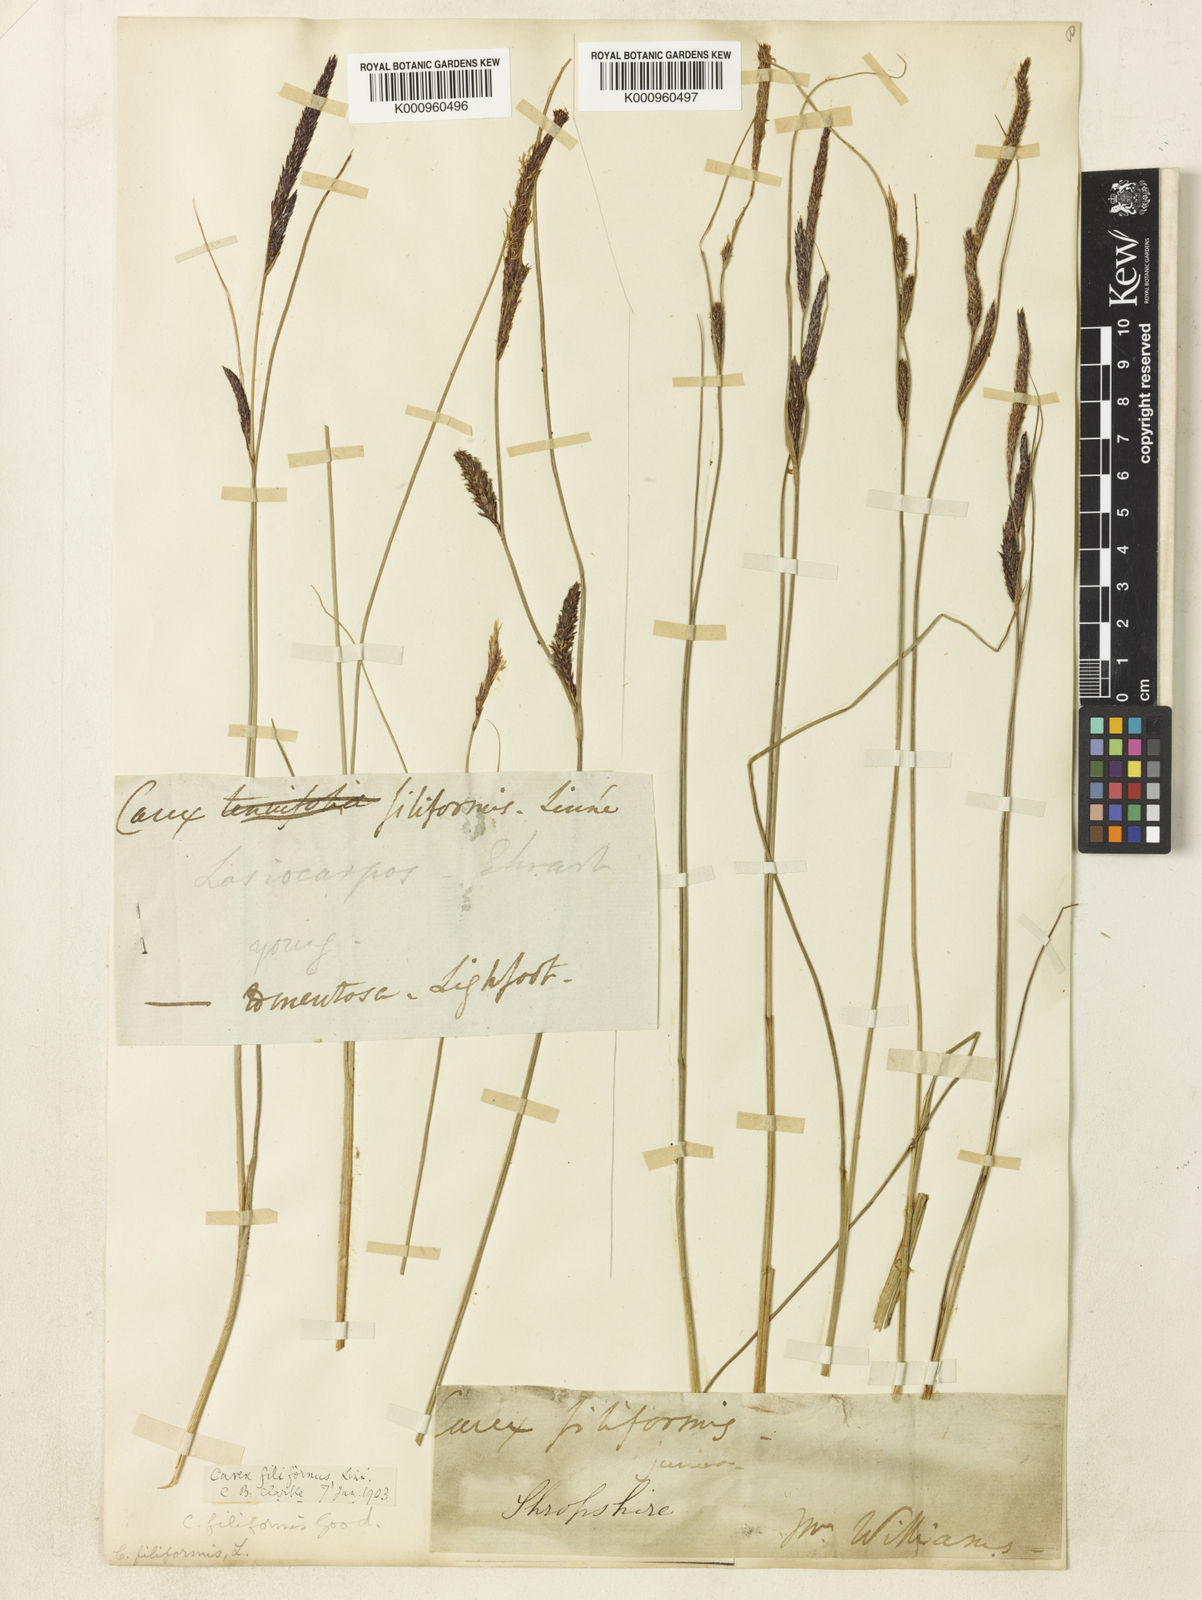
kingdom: Plantae
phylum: Tracheophyta
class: Liliopsida
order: Poales
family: Cyperaceae
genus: Carex
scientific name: Carex lasiocarpa
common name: Slender sedge
